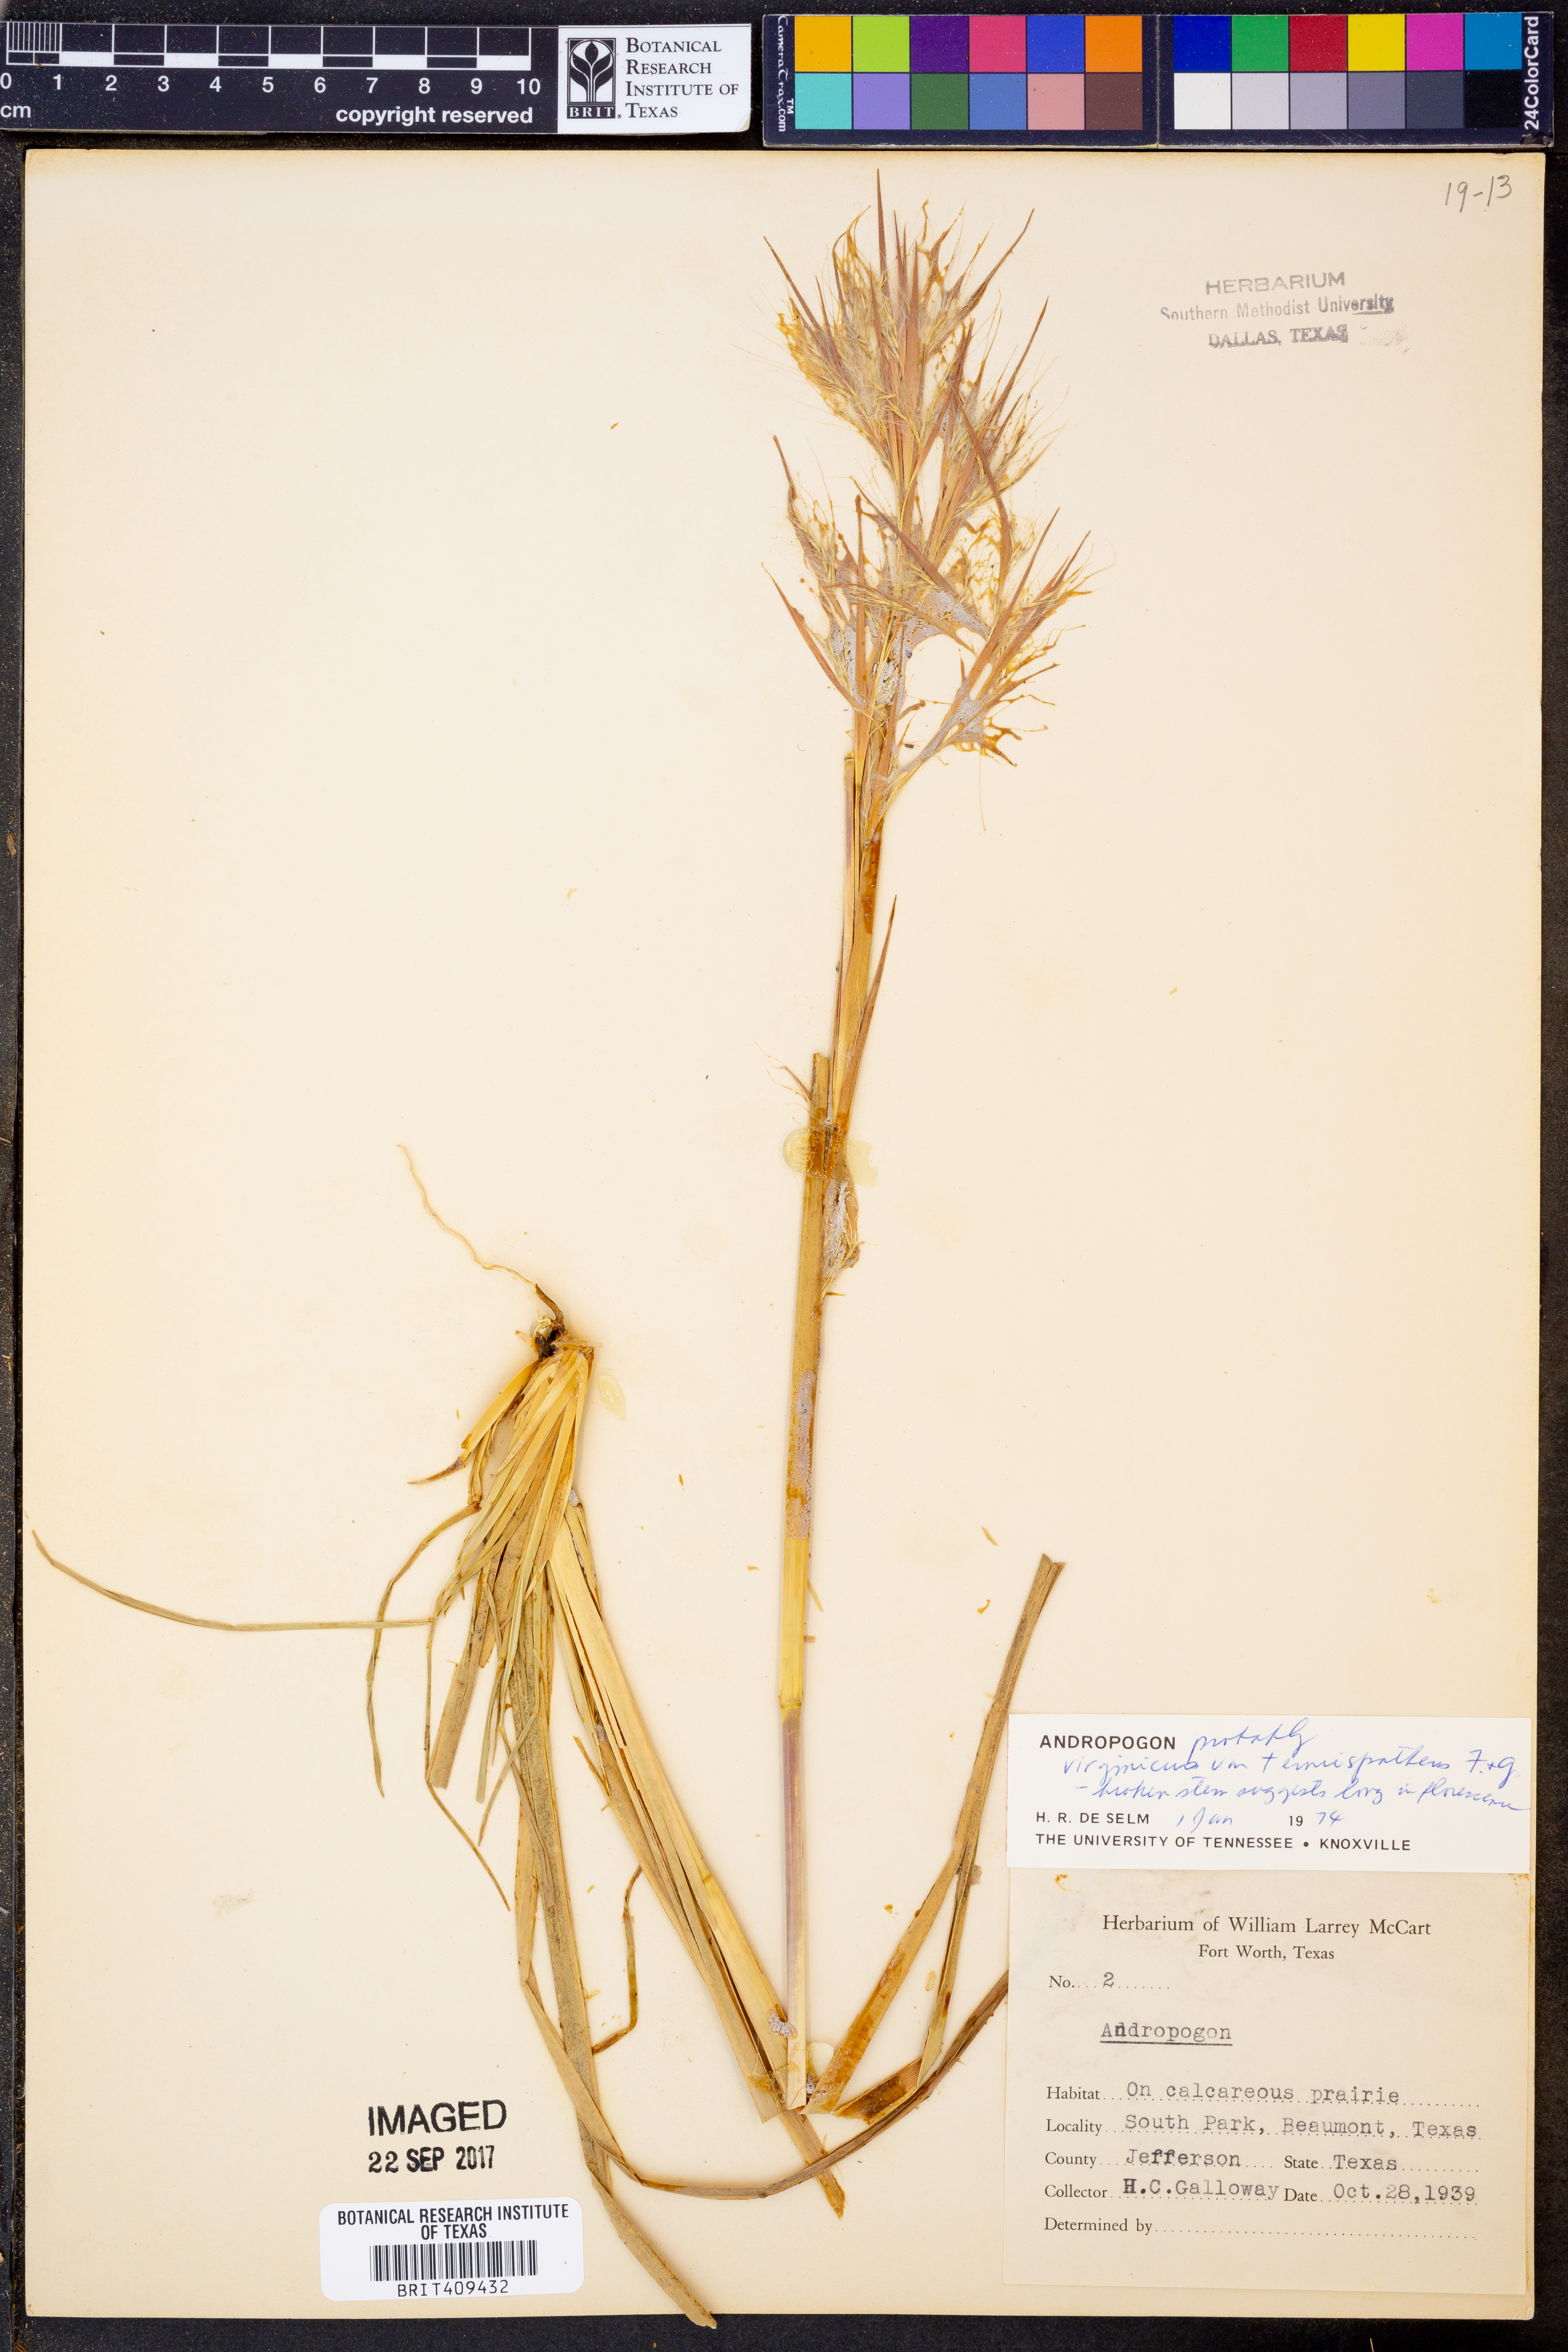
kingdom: Plantae
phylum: Tracheophyta
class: Liliopsida
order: Poales
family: Poaceae
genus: Andropogon
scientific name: Andropogon
